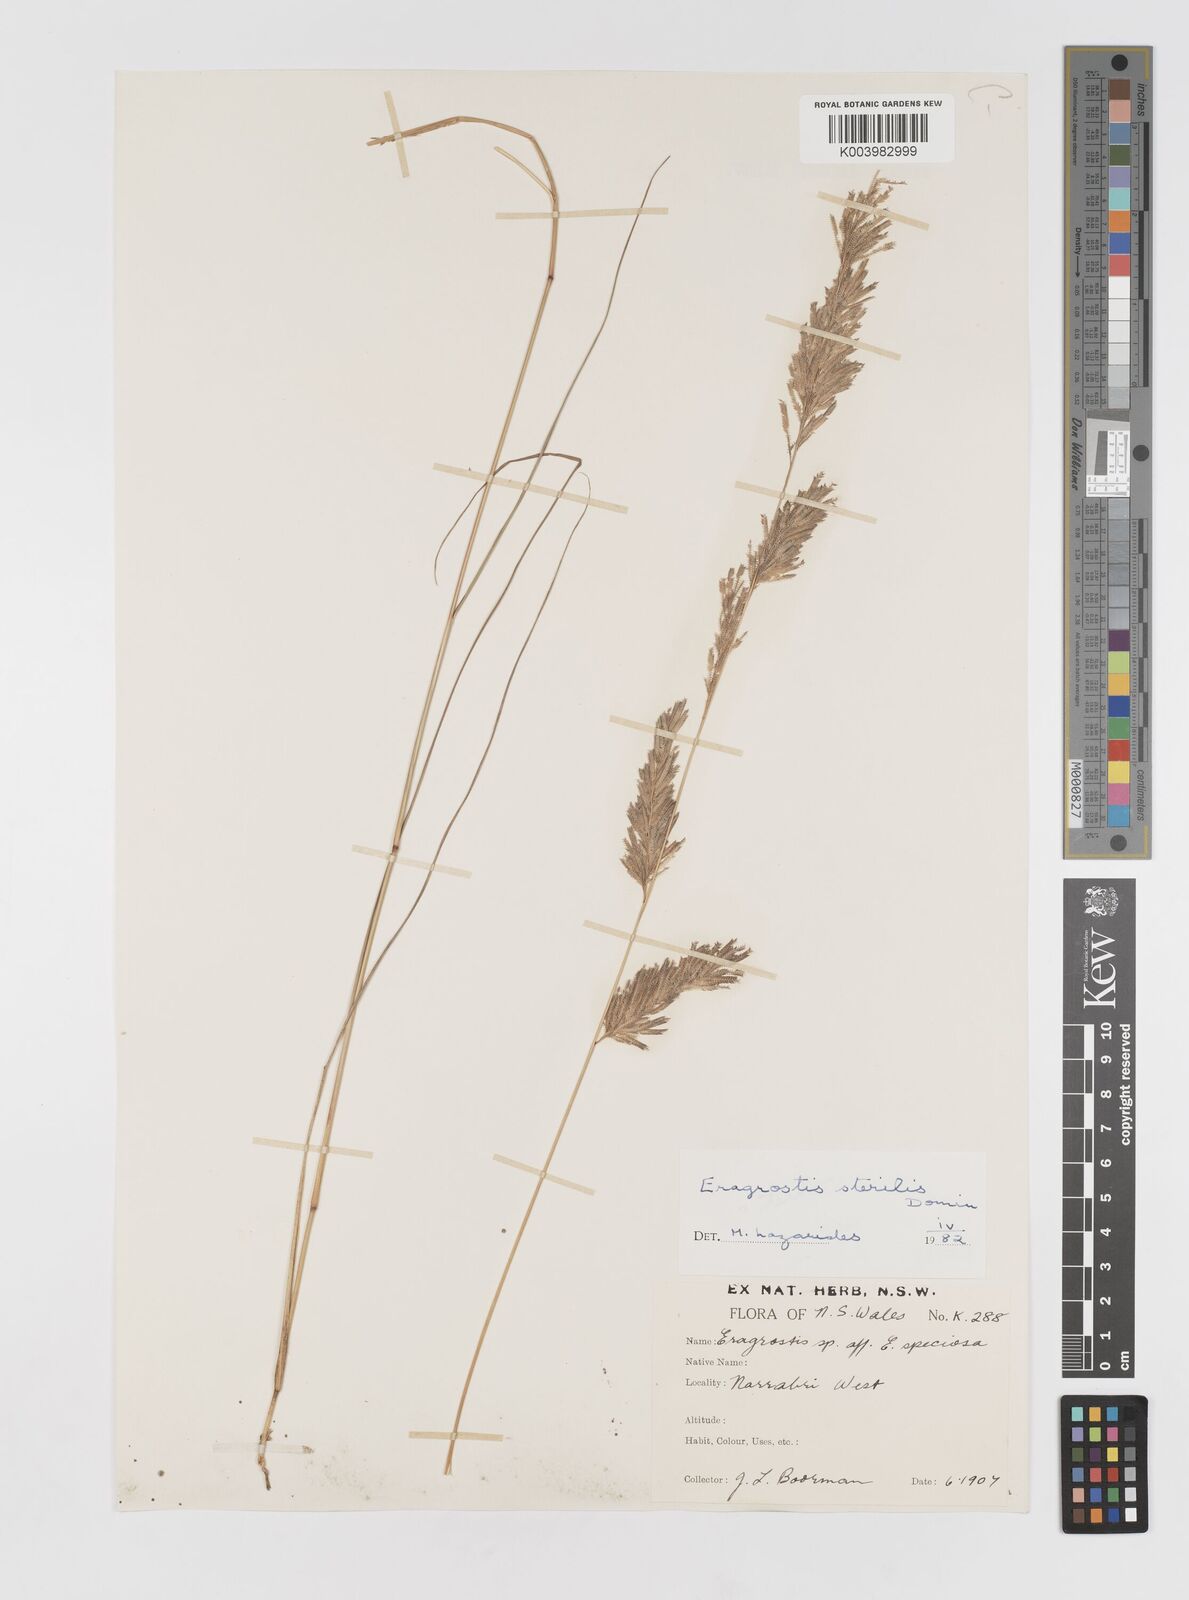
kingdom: Plantae
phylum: Tracheophyta
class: Liliopsida
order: Poales
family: Poaceae
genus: Eragrostis
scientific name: Eragrostis sterilis
